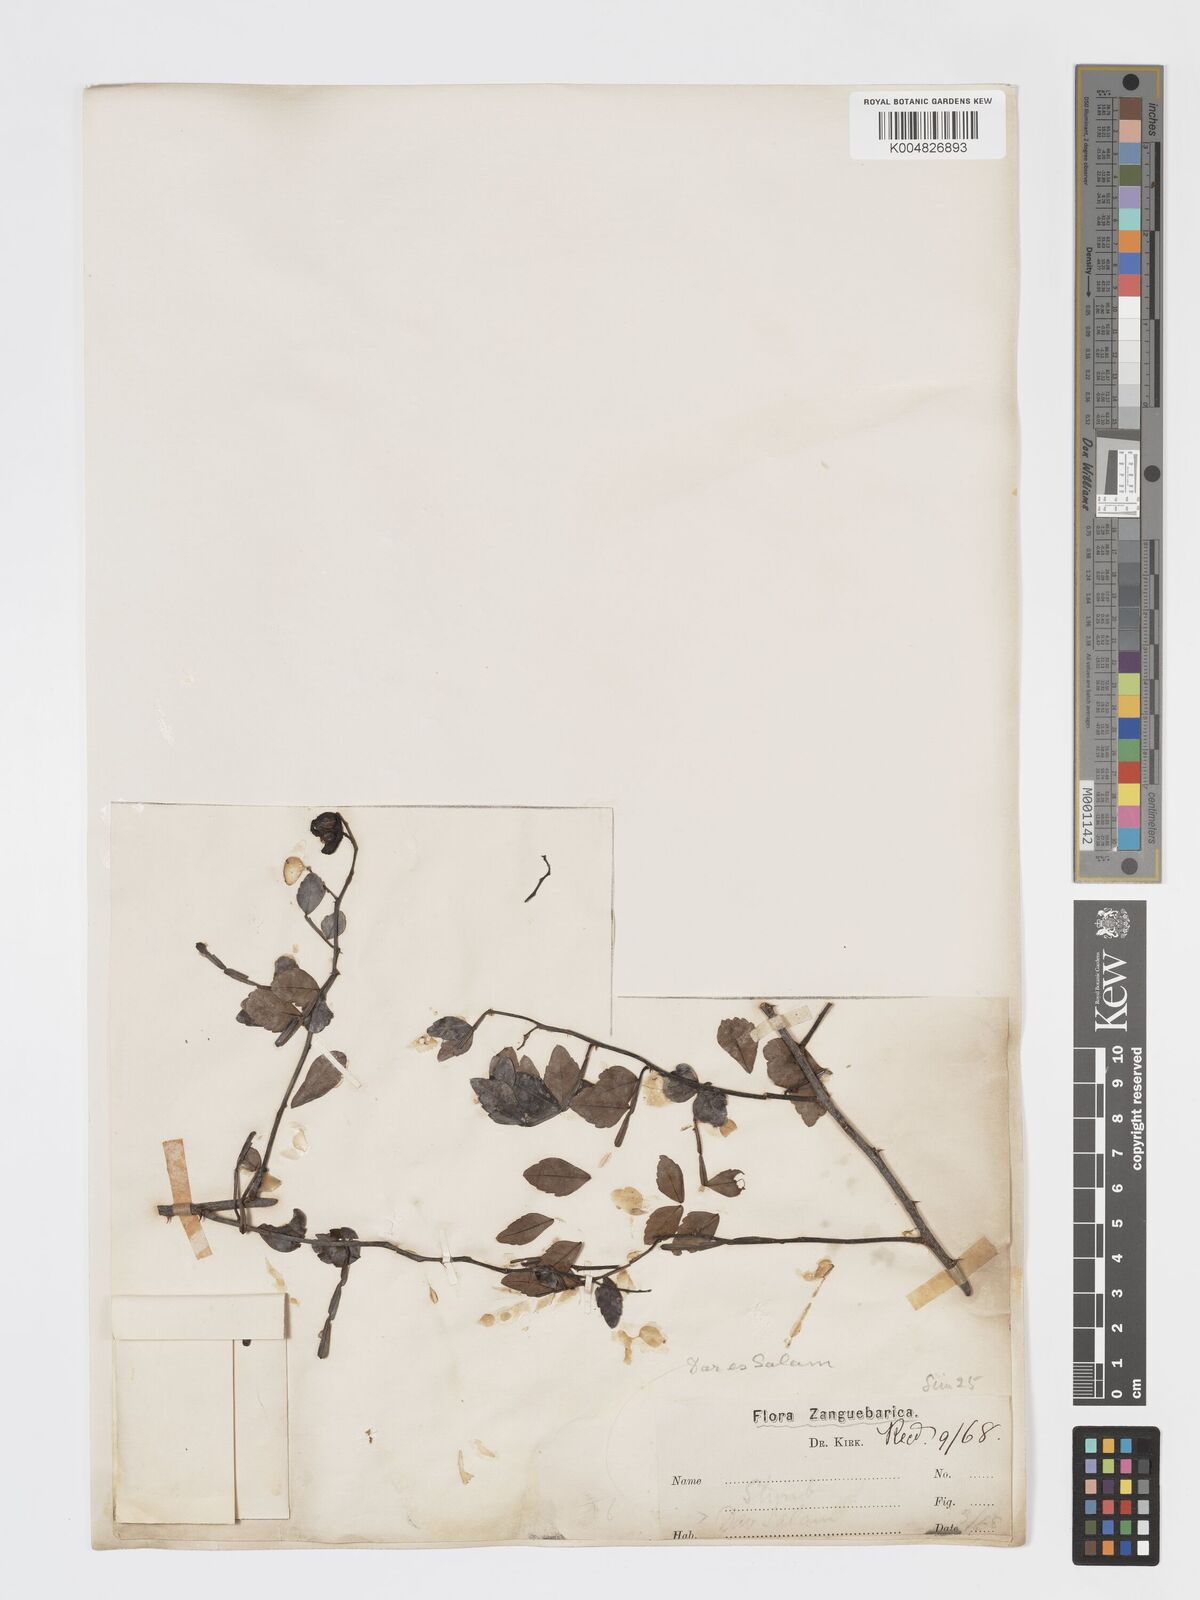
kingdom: Plantae
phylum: Tracheophyta
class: Magnoliopsida
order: Sapindales
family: Rutaceae
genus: Harrisonia
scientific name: Harrisonia abyssinica
